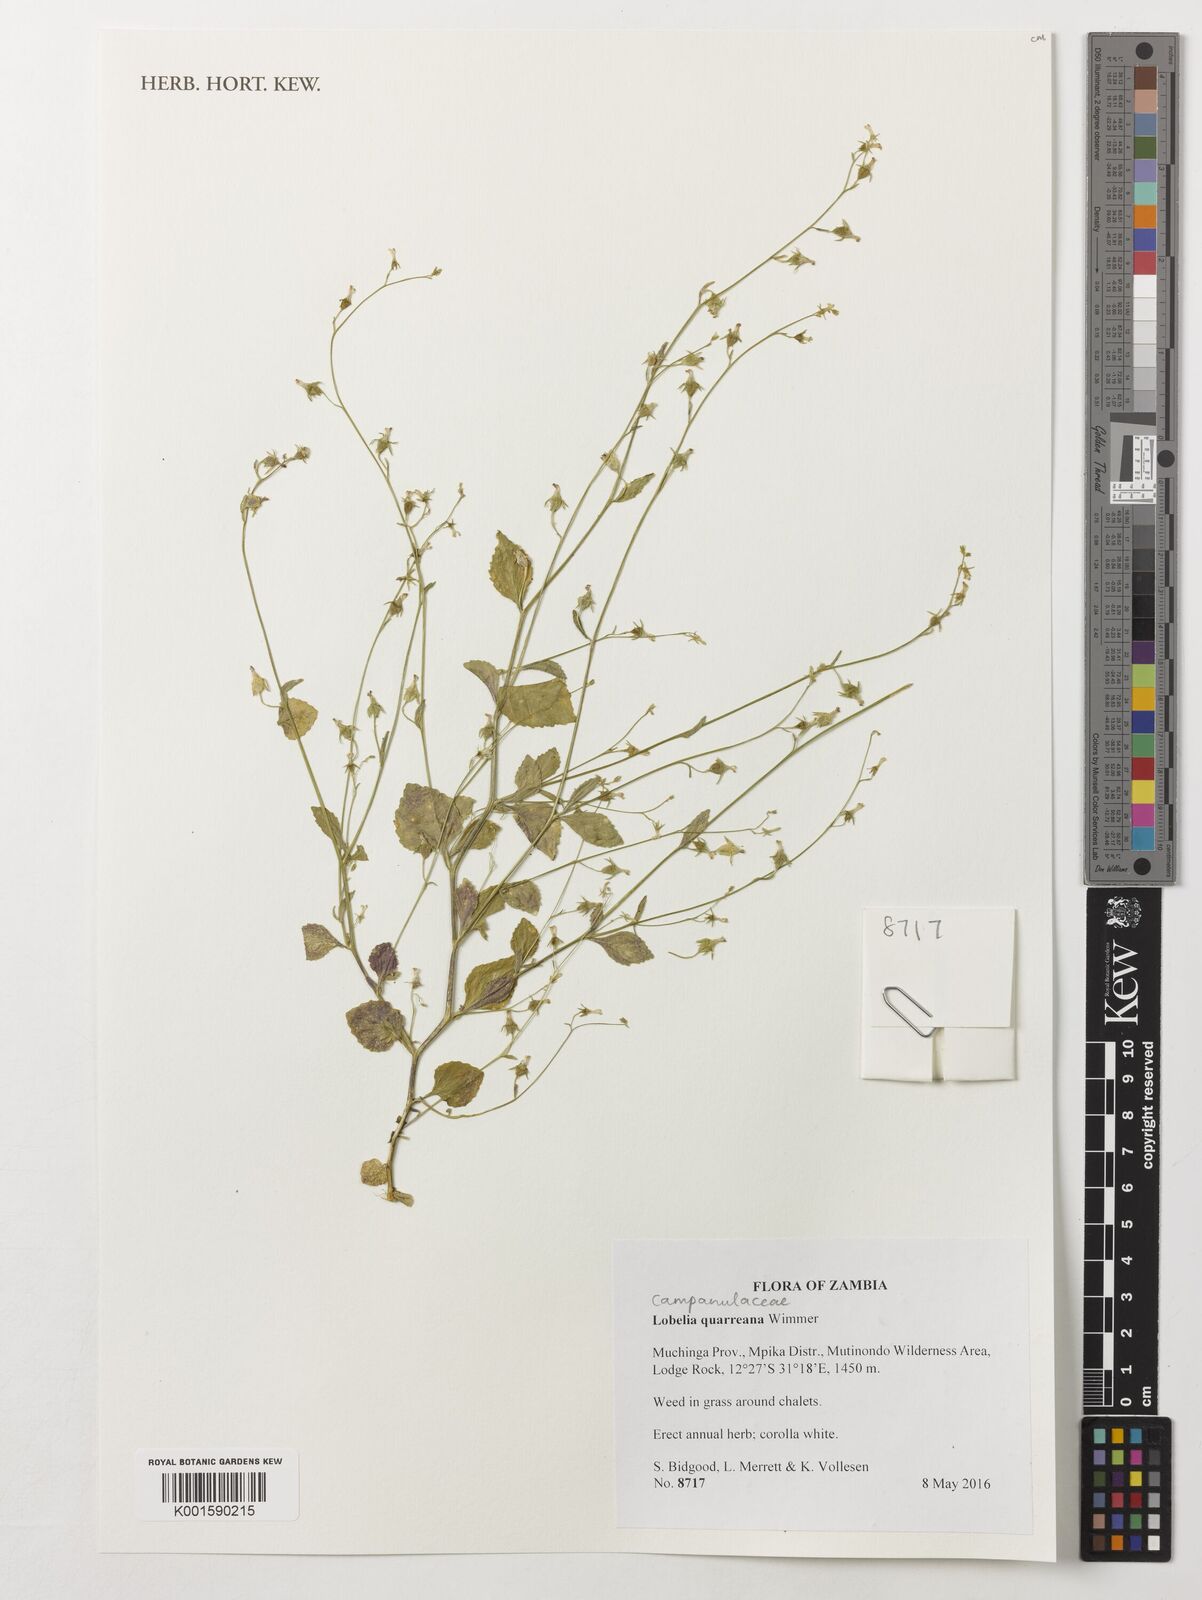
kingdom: Plantae
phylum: Tracheophyta
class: Magnoliopsida
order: Asterales
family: Campanulaceae
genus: Lobelia
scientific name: Lobelia quarreana
